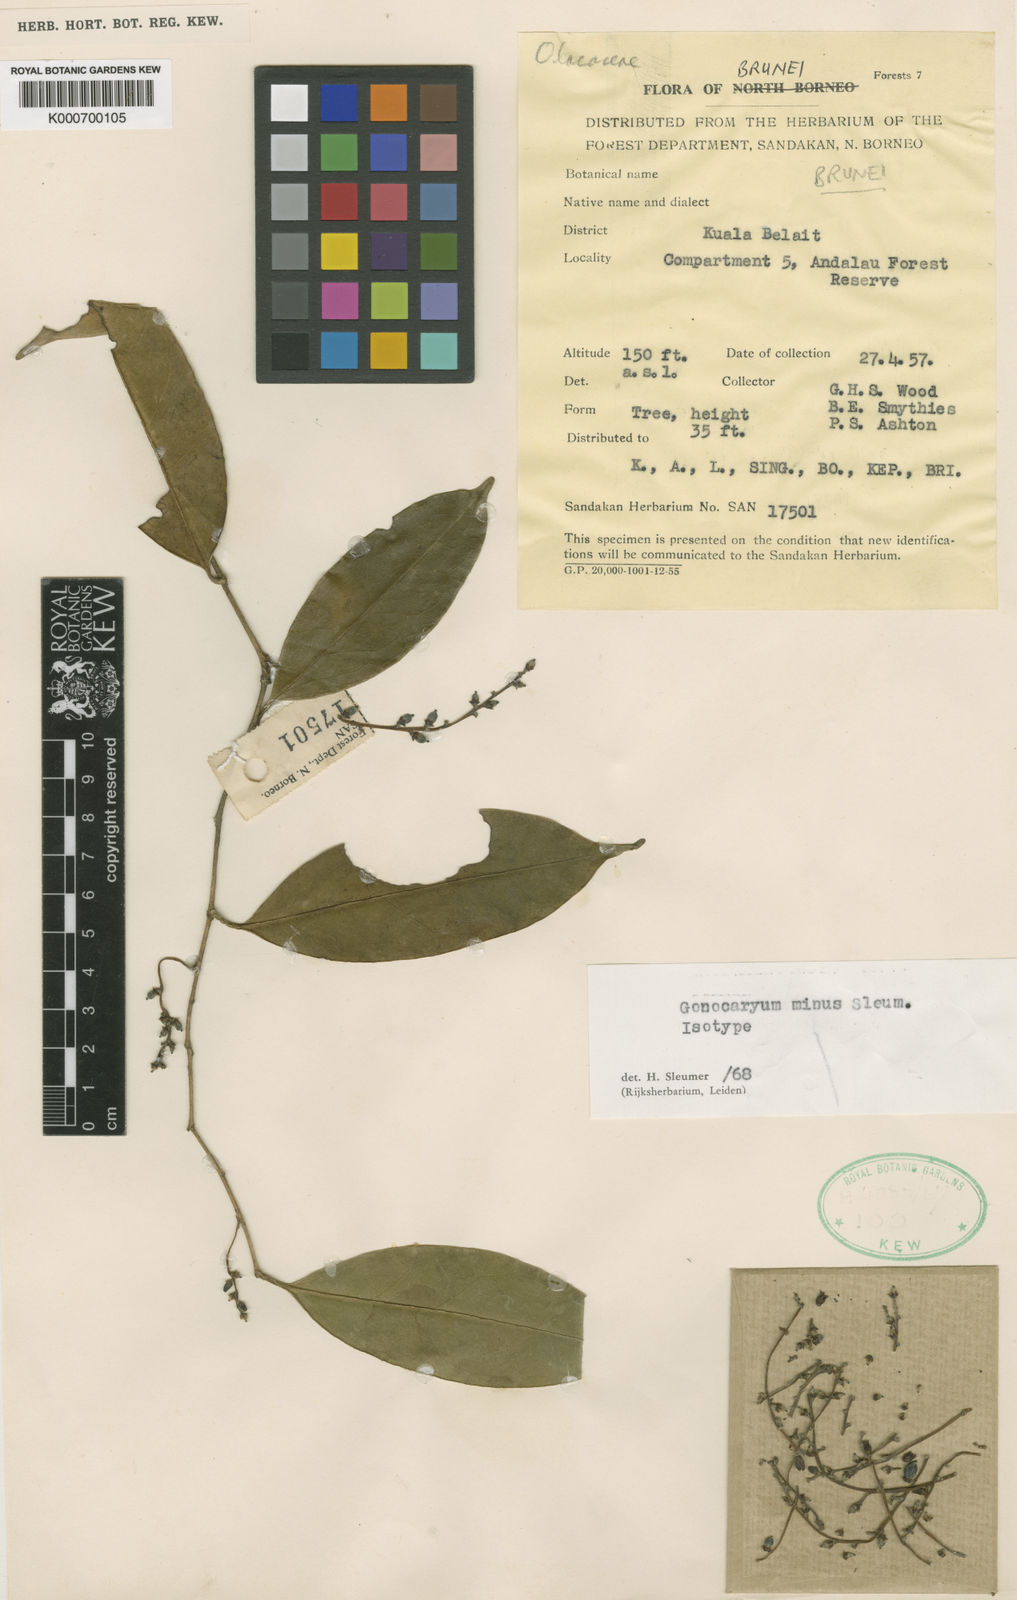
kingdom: Plantae
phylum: Tracheophyta
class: Magnoliopsida
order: Cardiopteridales
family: Cardiopteridaceae
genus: Gonocaryum
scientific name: Gonocaryum minus
